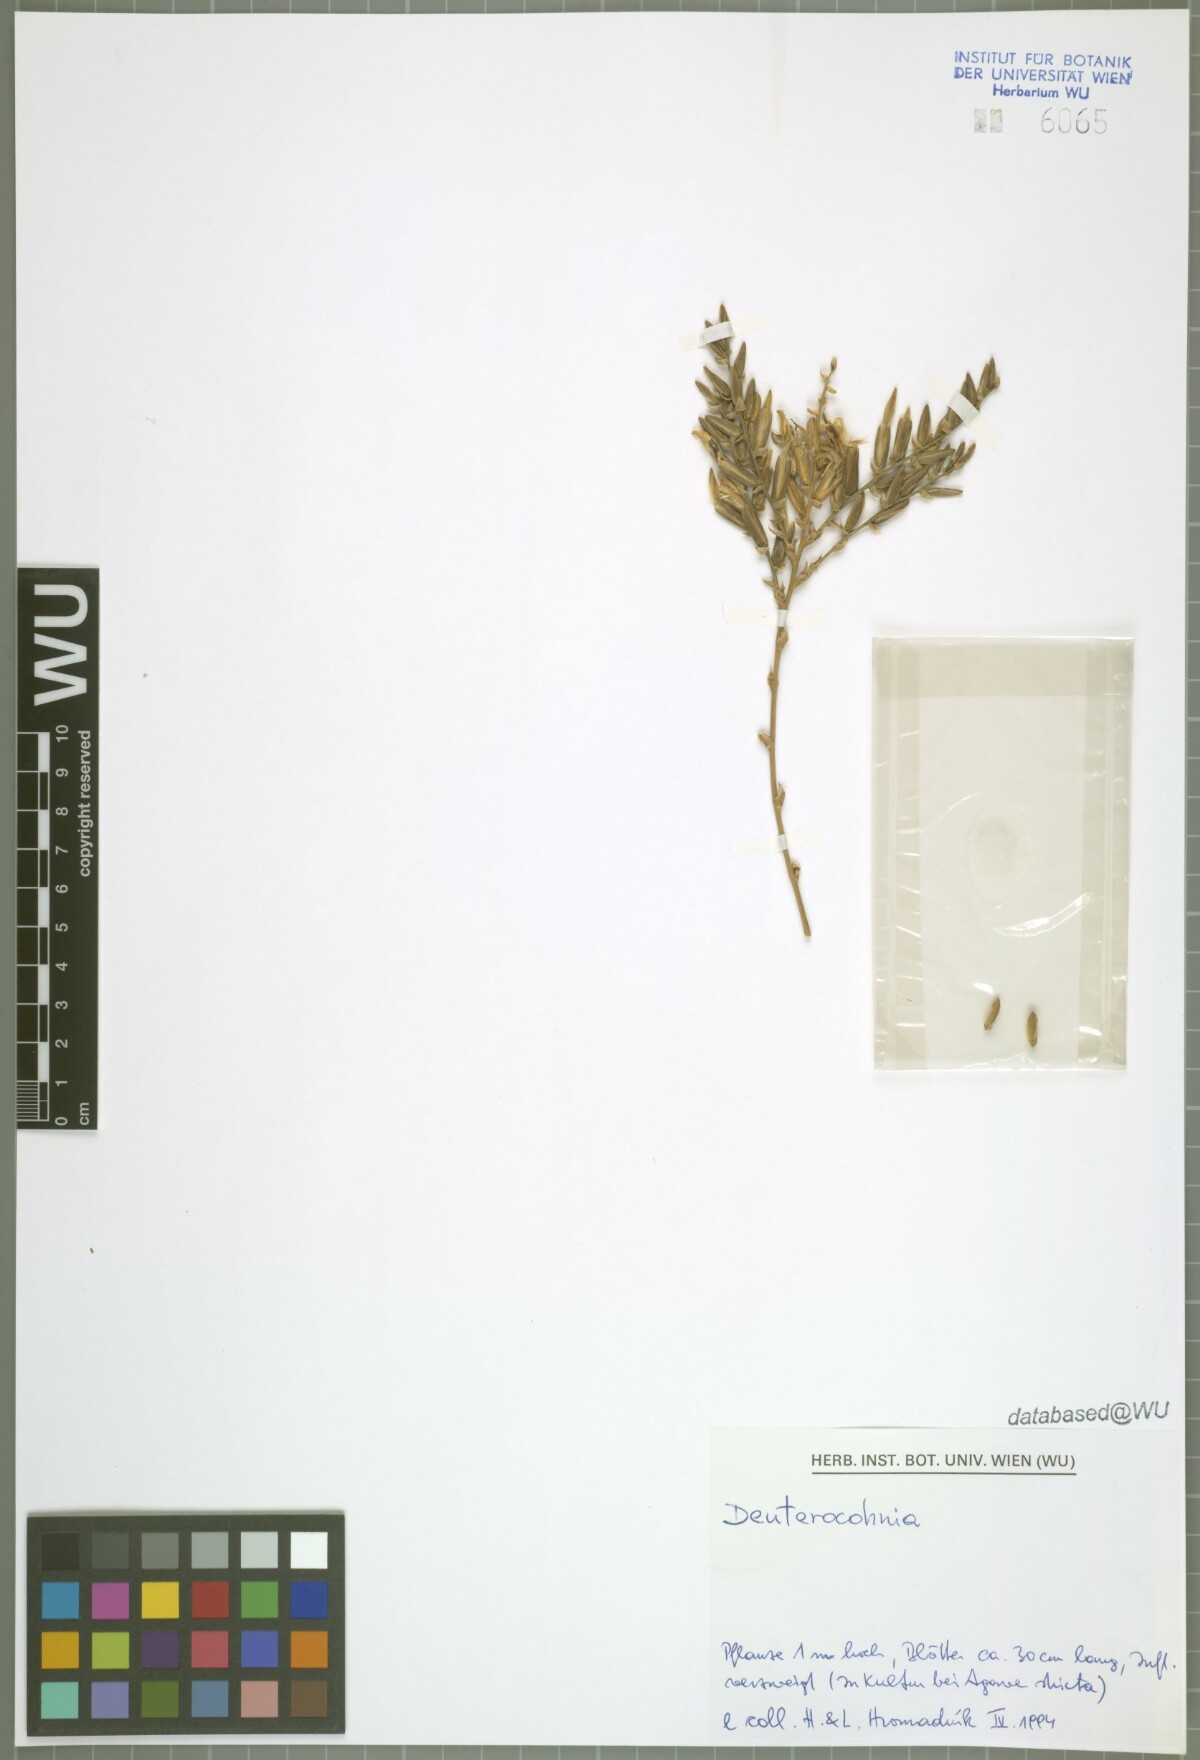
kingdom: Plantae
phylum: Tracheophyta
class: Liliopsida
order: Poales
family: Bromeliaceae
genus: Deuterocohnia
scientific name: Deuterocohnia
